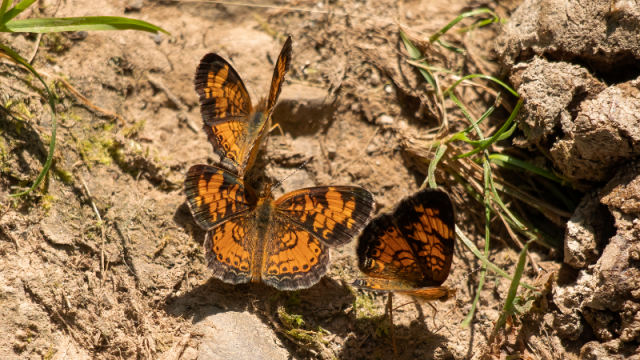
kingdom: Animalia
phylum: Arthropoda
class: Insecta
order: Lepidoptera
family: Nymphalidae
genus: Phyciodes
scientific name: Phyciodes tharos
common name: Northern Crescent
